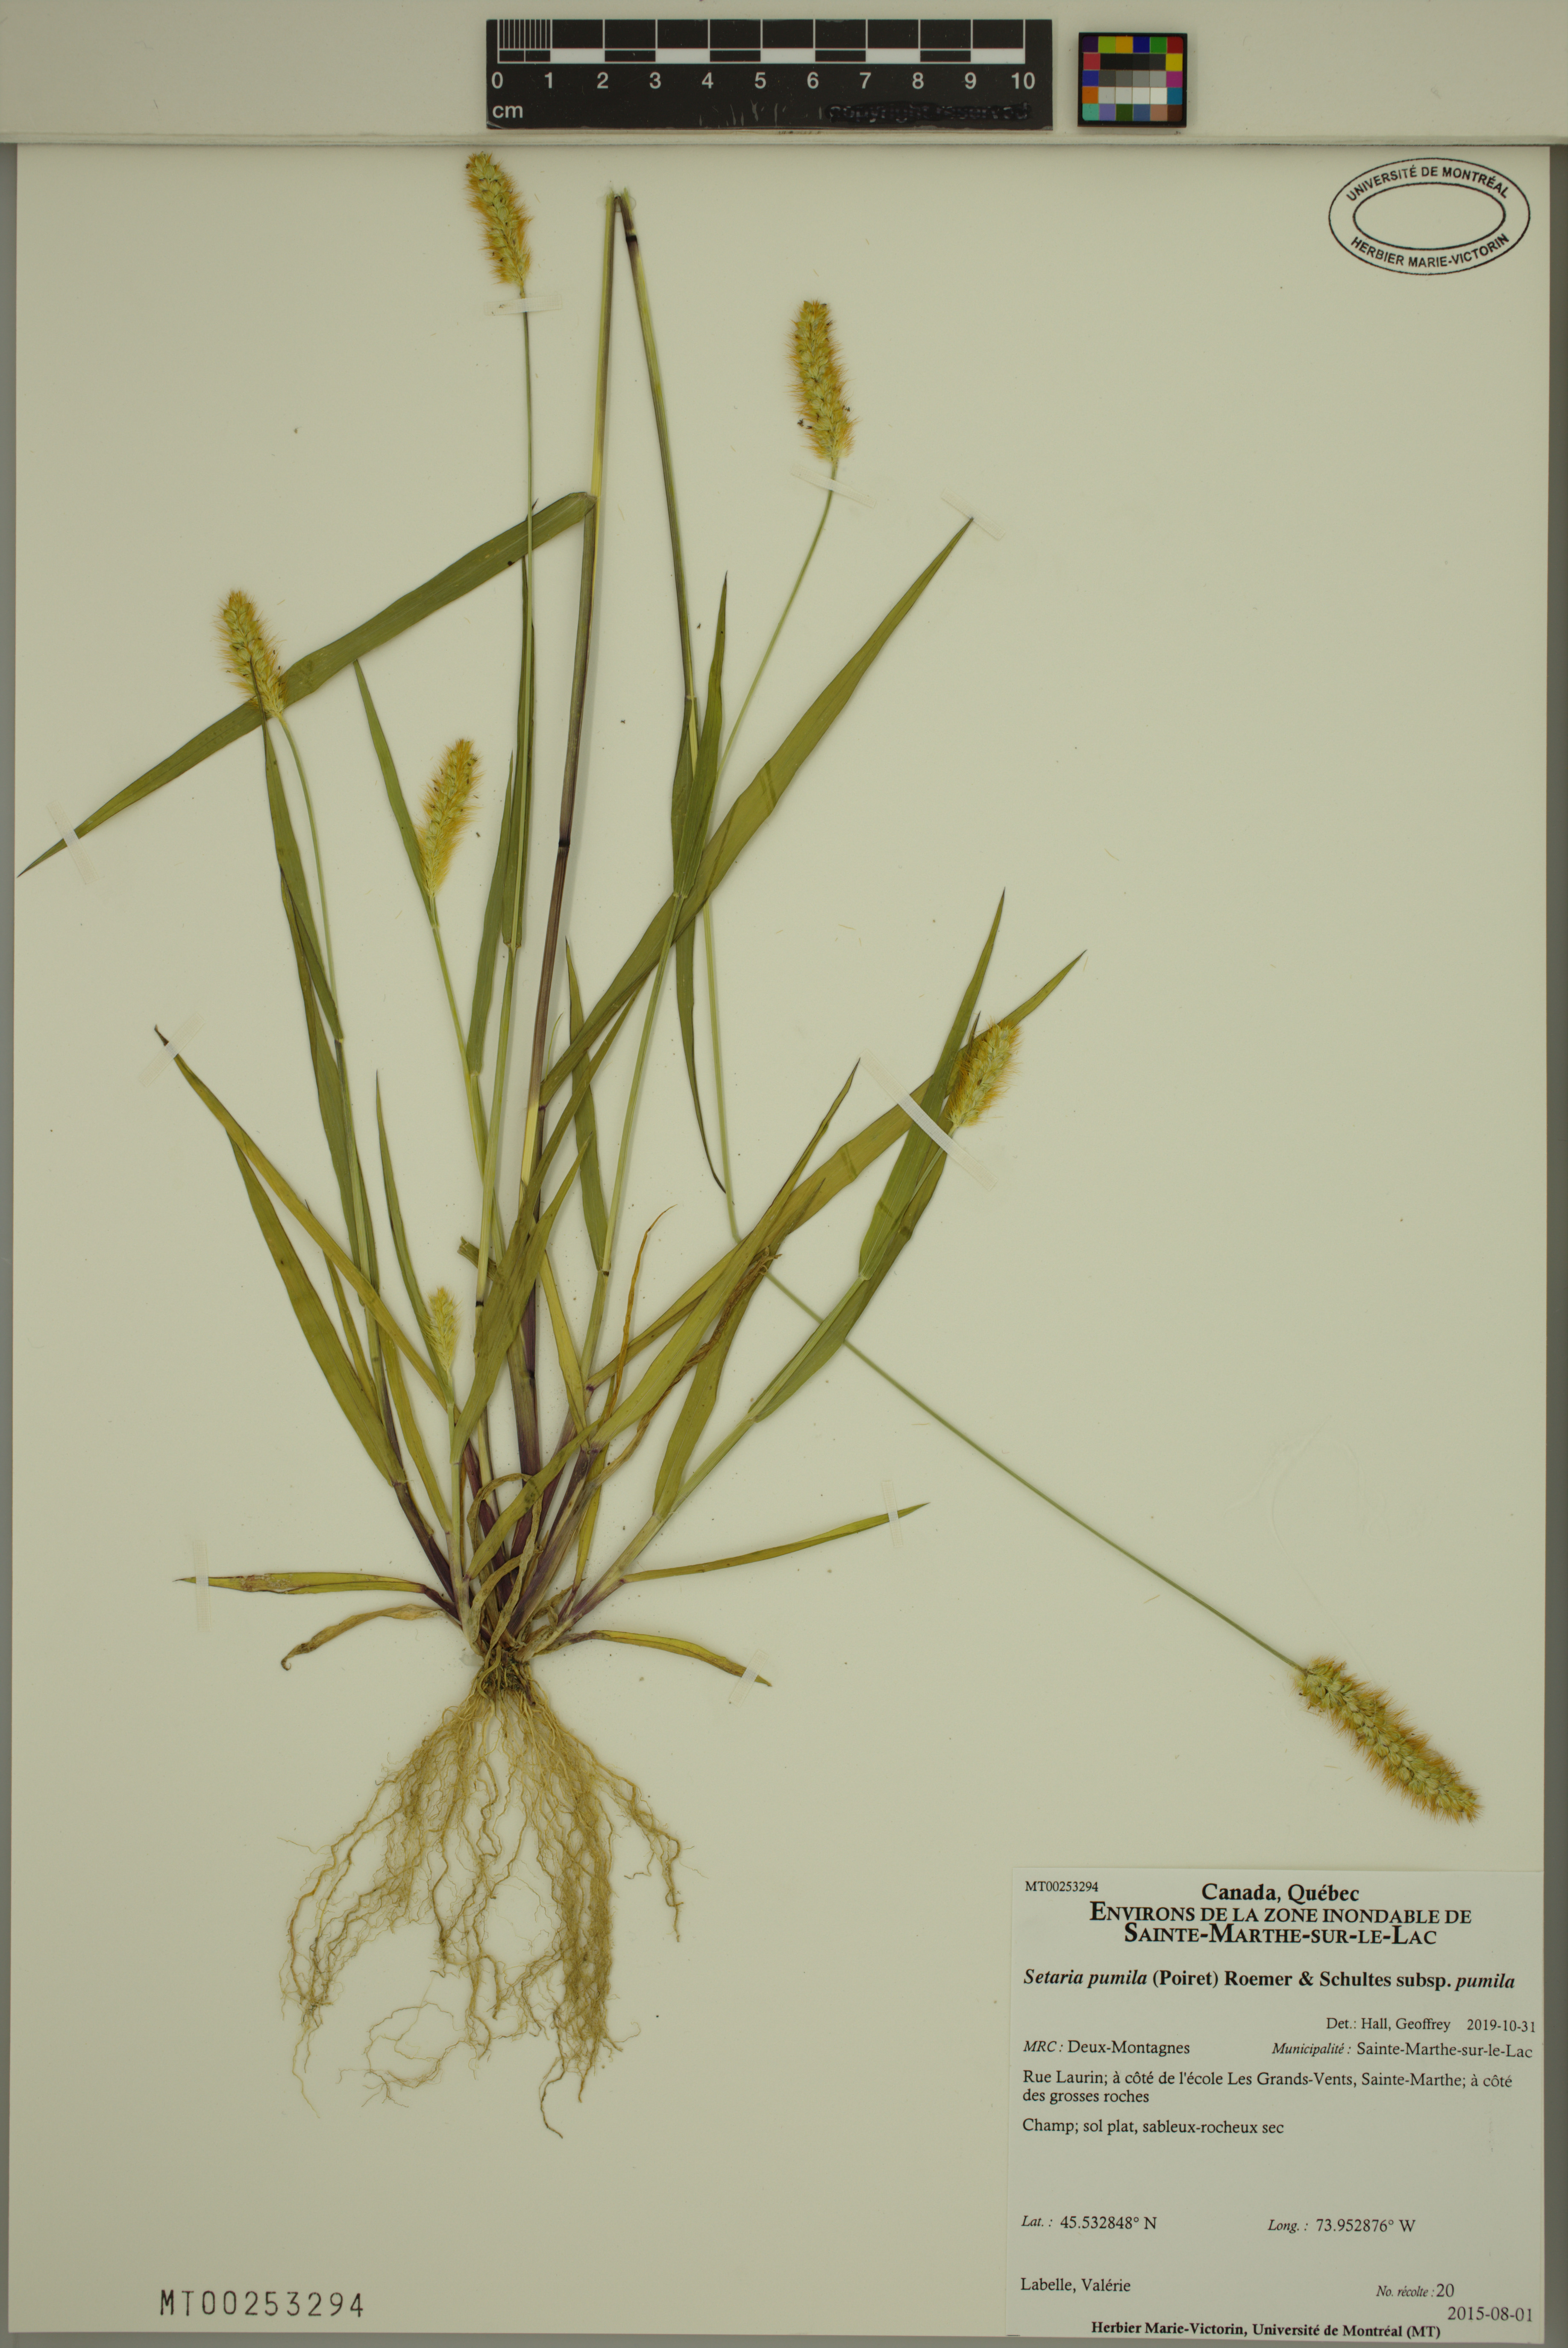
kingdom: Plantae
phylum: Tracheophyta
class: Liliopsida
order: Poales
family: Poaceae
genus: Setaria
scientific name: Setaria pumila
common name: Yellow bristle-grass
